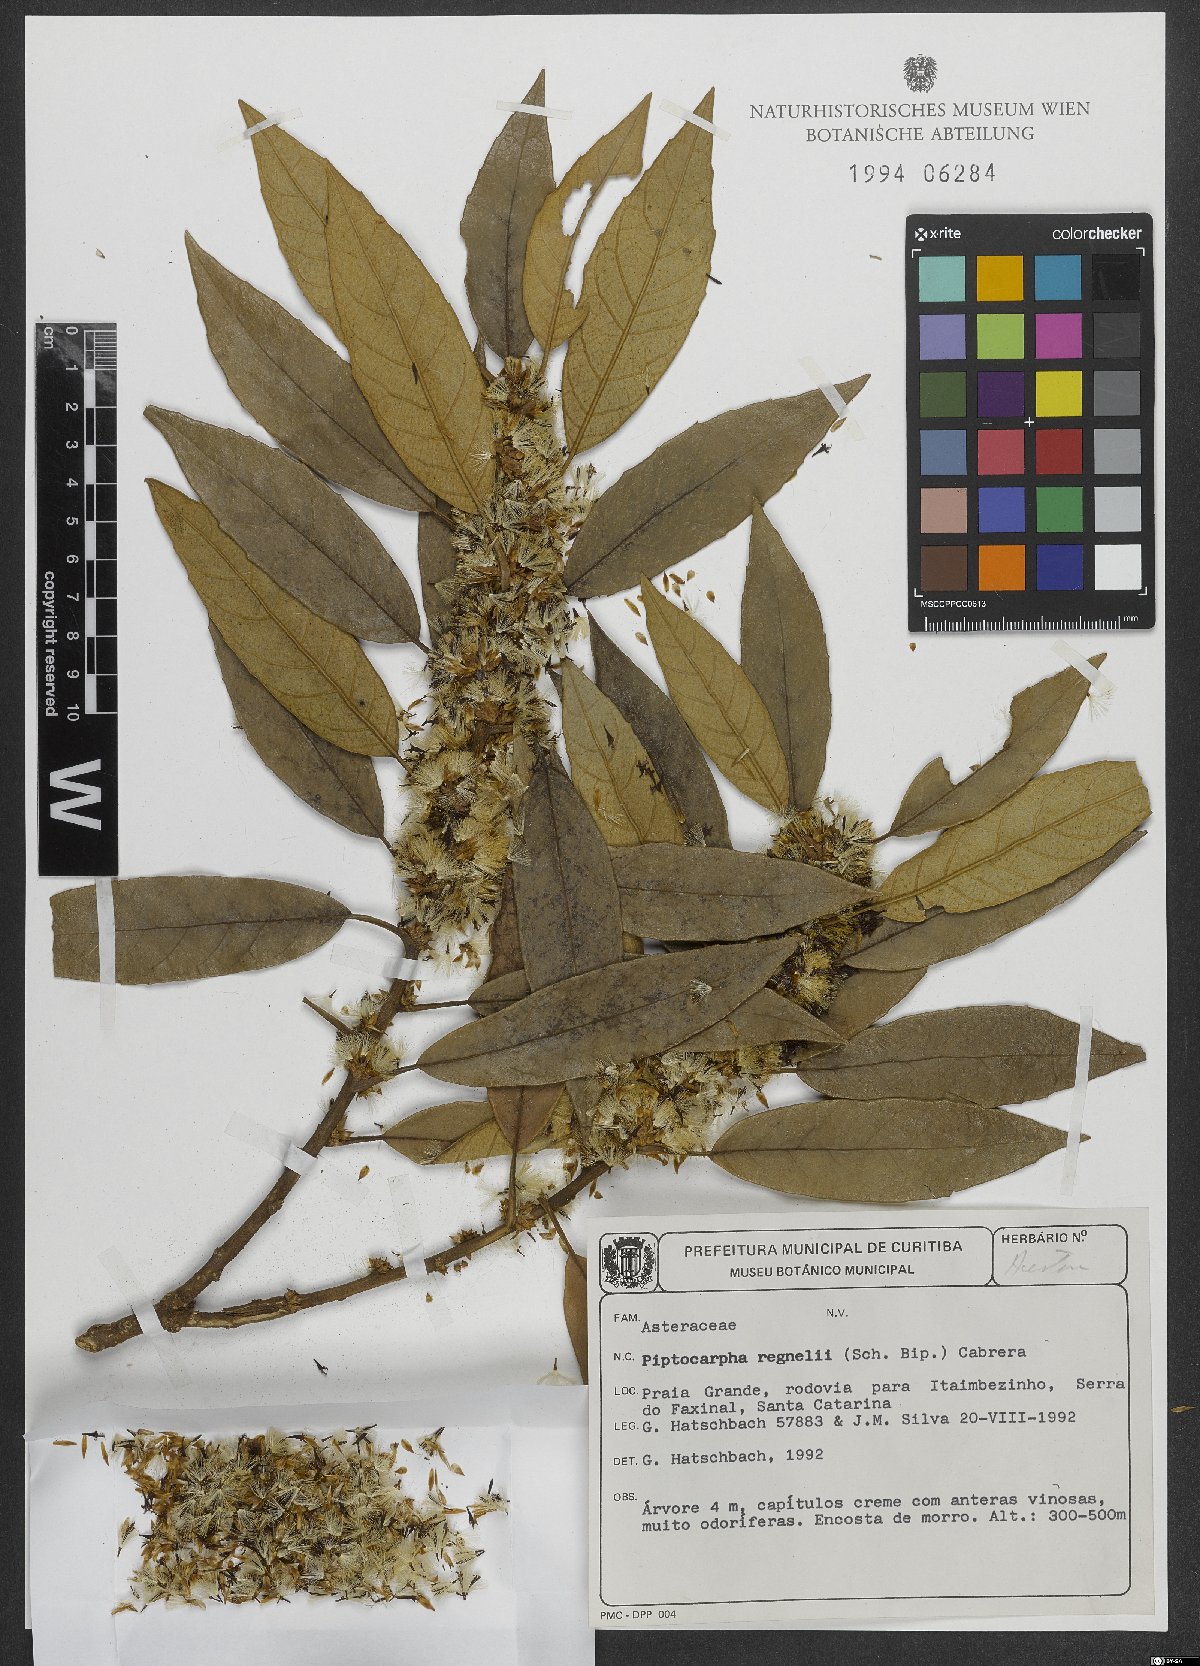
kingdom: Plantae
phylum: Tracheophyta
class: Magnoliopsida
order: Asterales
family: Asteraceae
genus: Piptocarpha
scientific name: Piptocarpha regnellii
